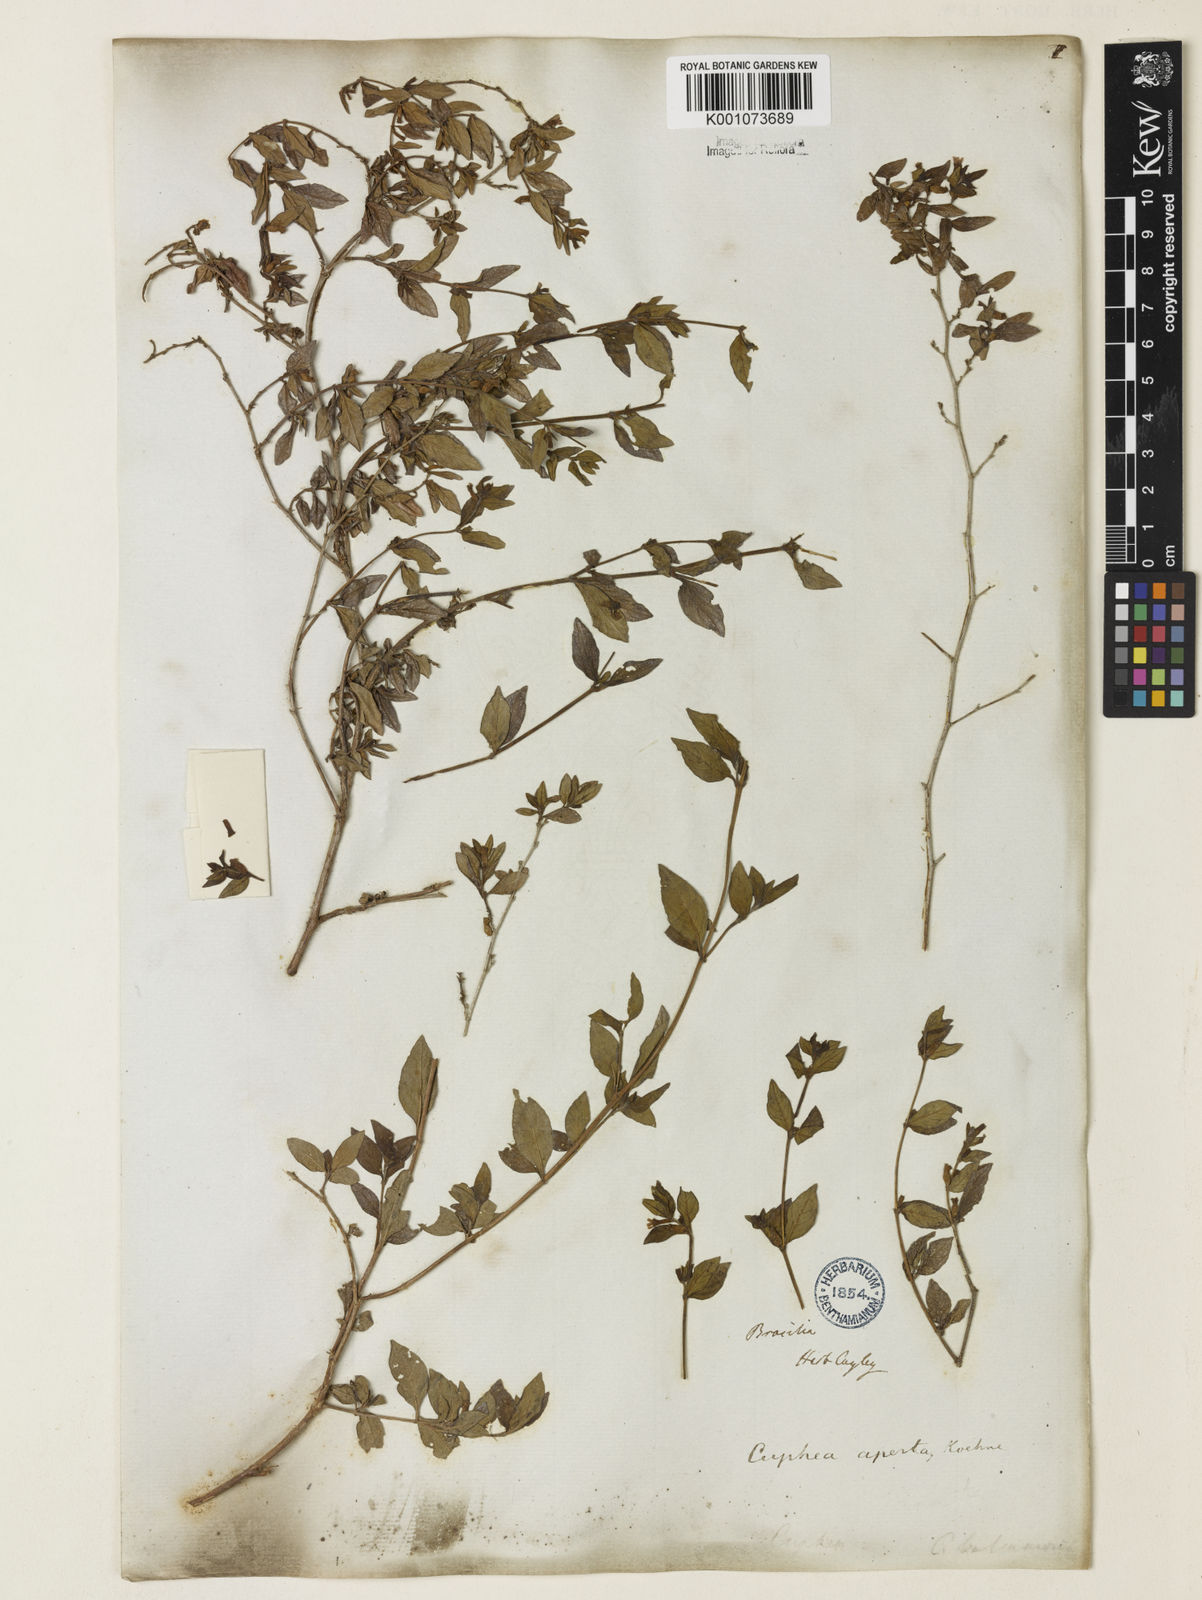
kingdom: Plantae
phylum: Tracheophyta
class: Magnoliopsida
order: Myrtales
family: Lythraceae
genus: Cuphea
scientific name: Cuphea aperta
